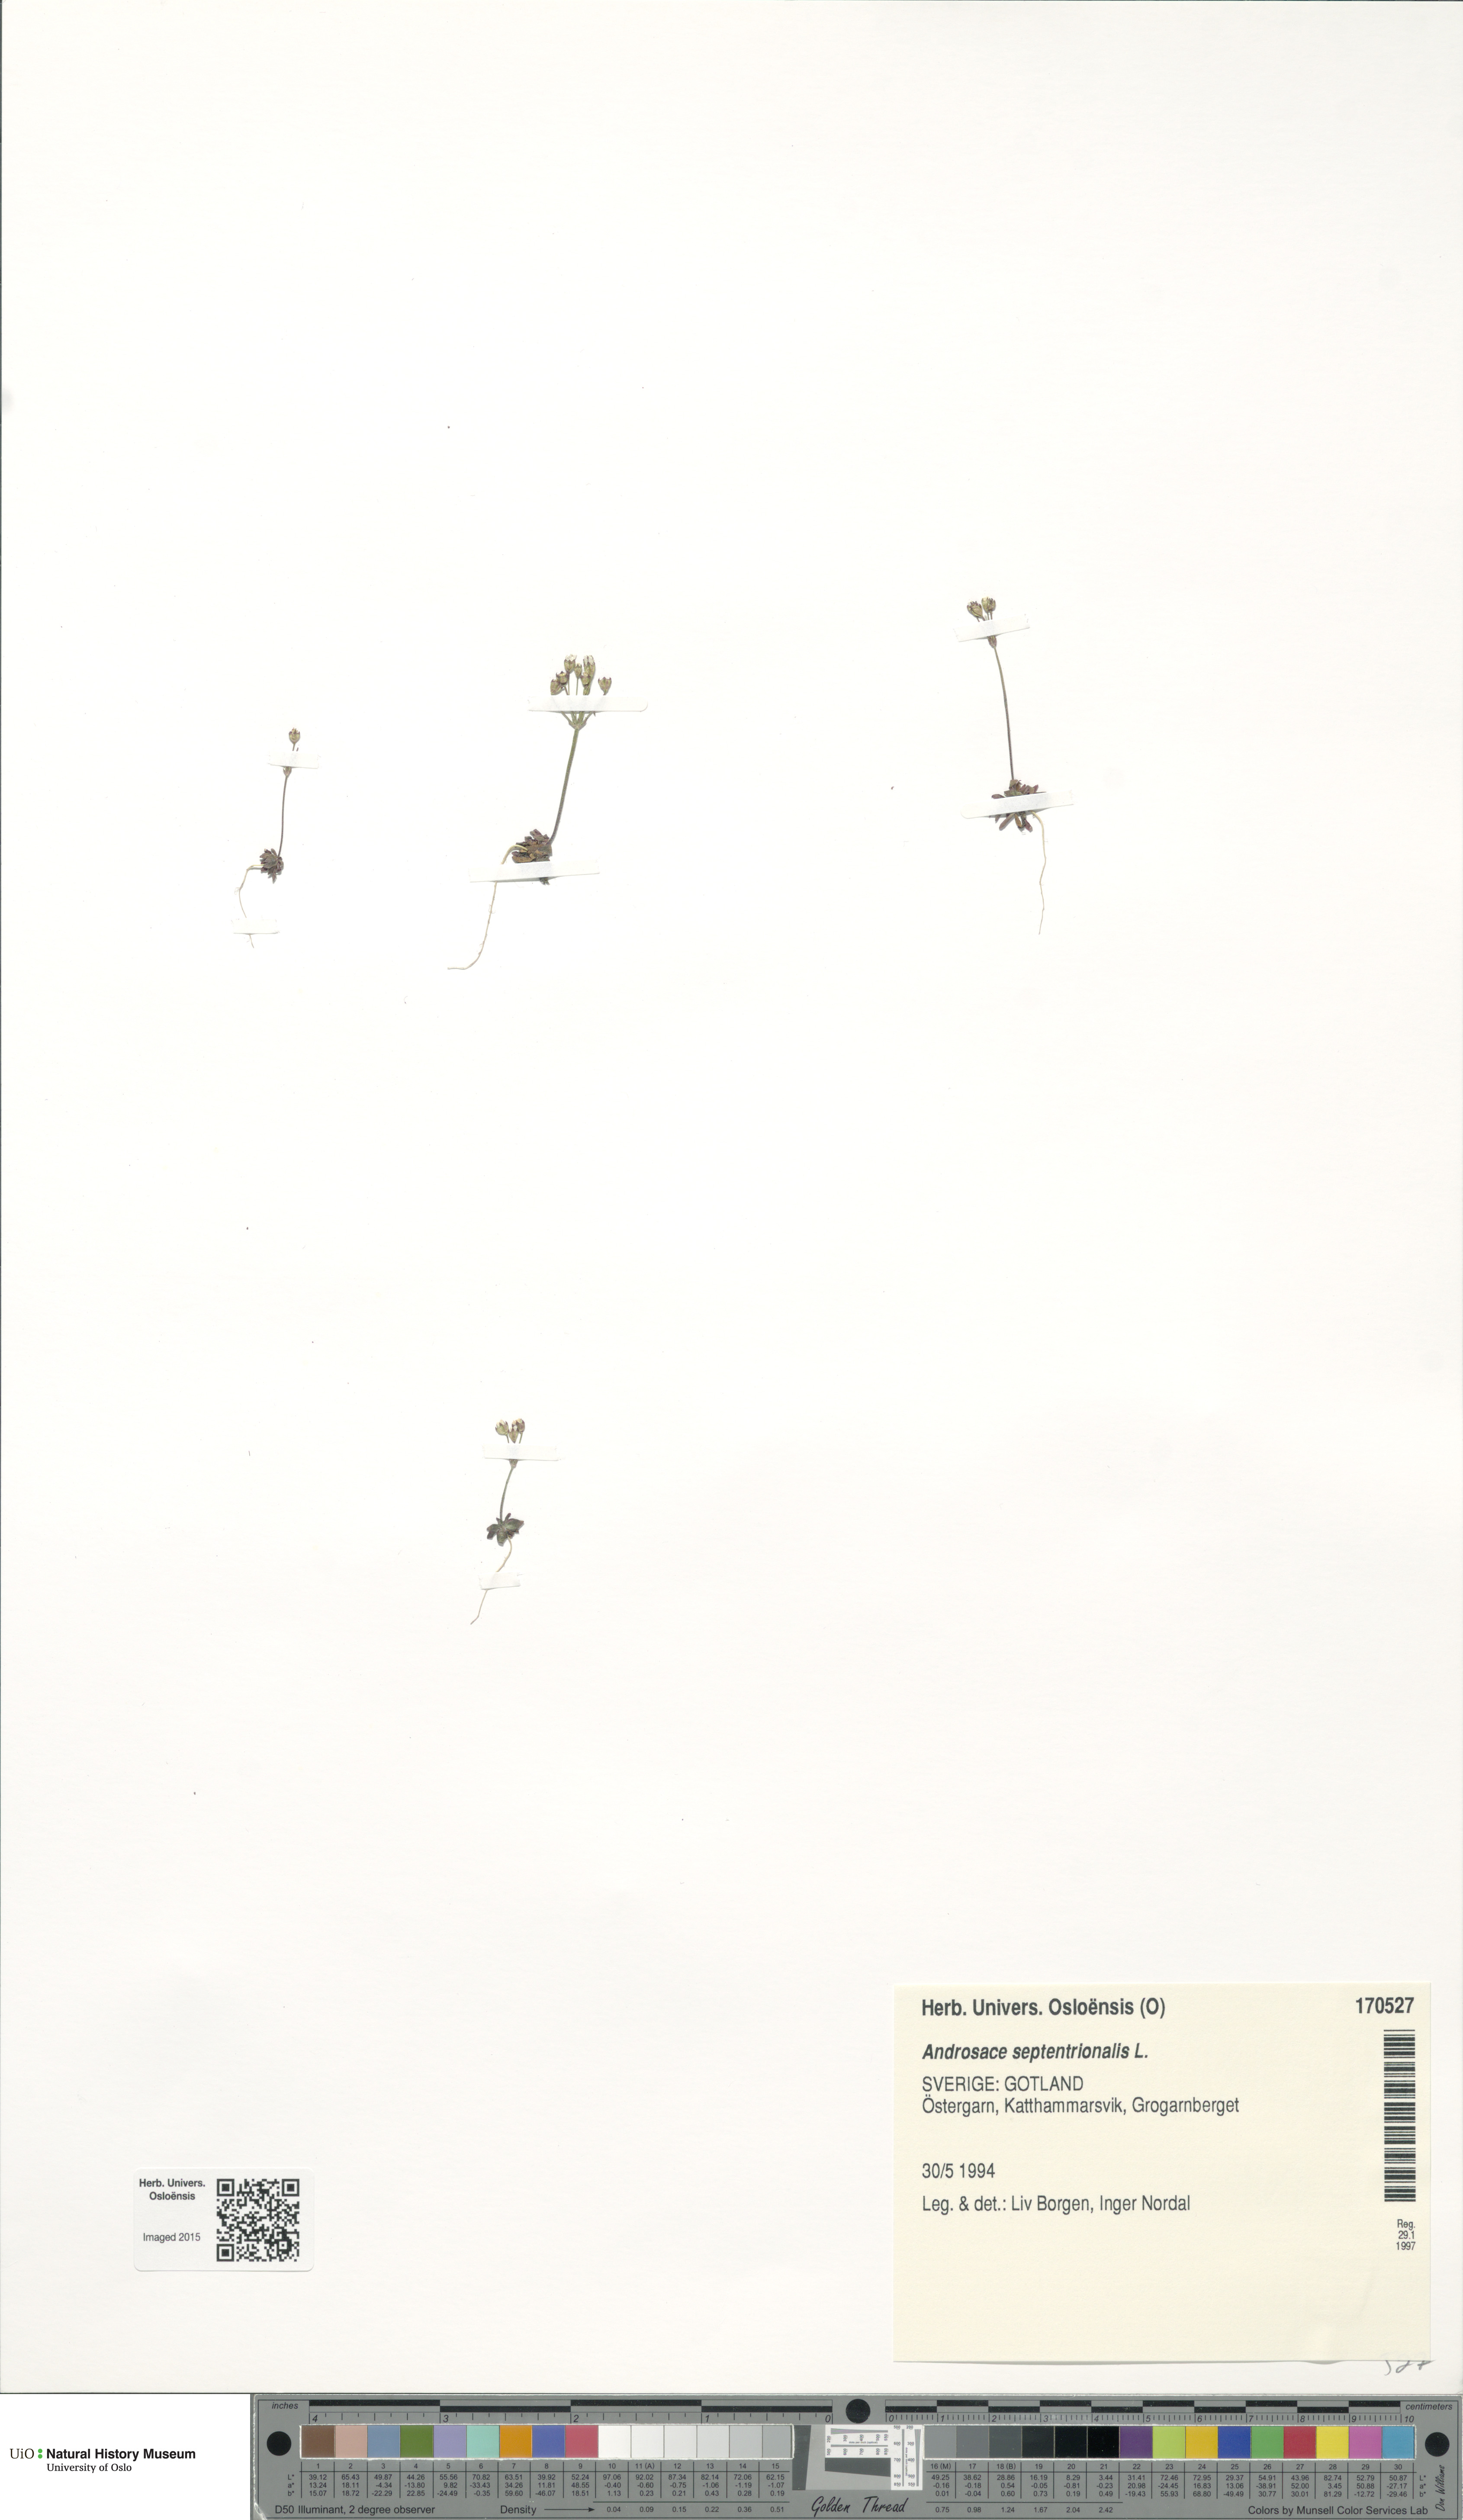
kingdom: Plantae
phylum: Tracheophyta
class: Magnoliopsida
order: Ericales
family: Primulaceae
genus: Androsace
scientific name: Androsace septentrionalis
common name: Hairy northern fairy-candelabra
